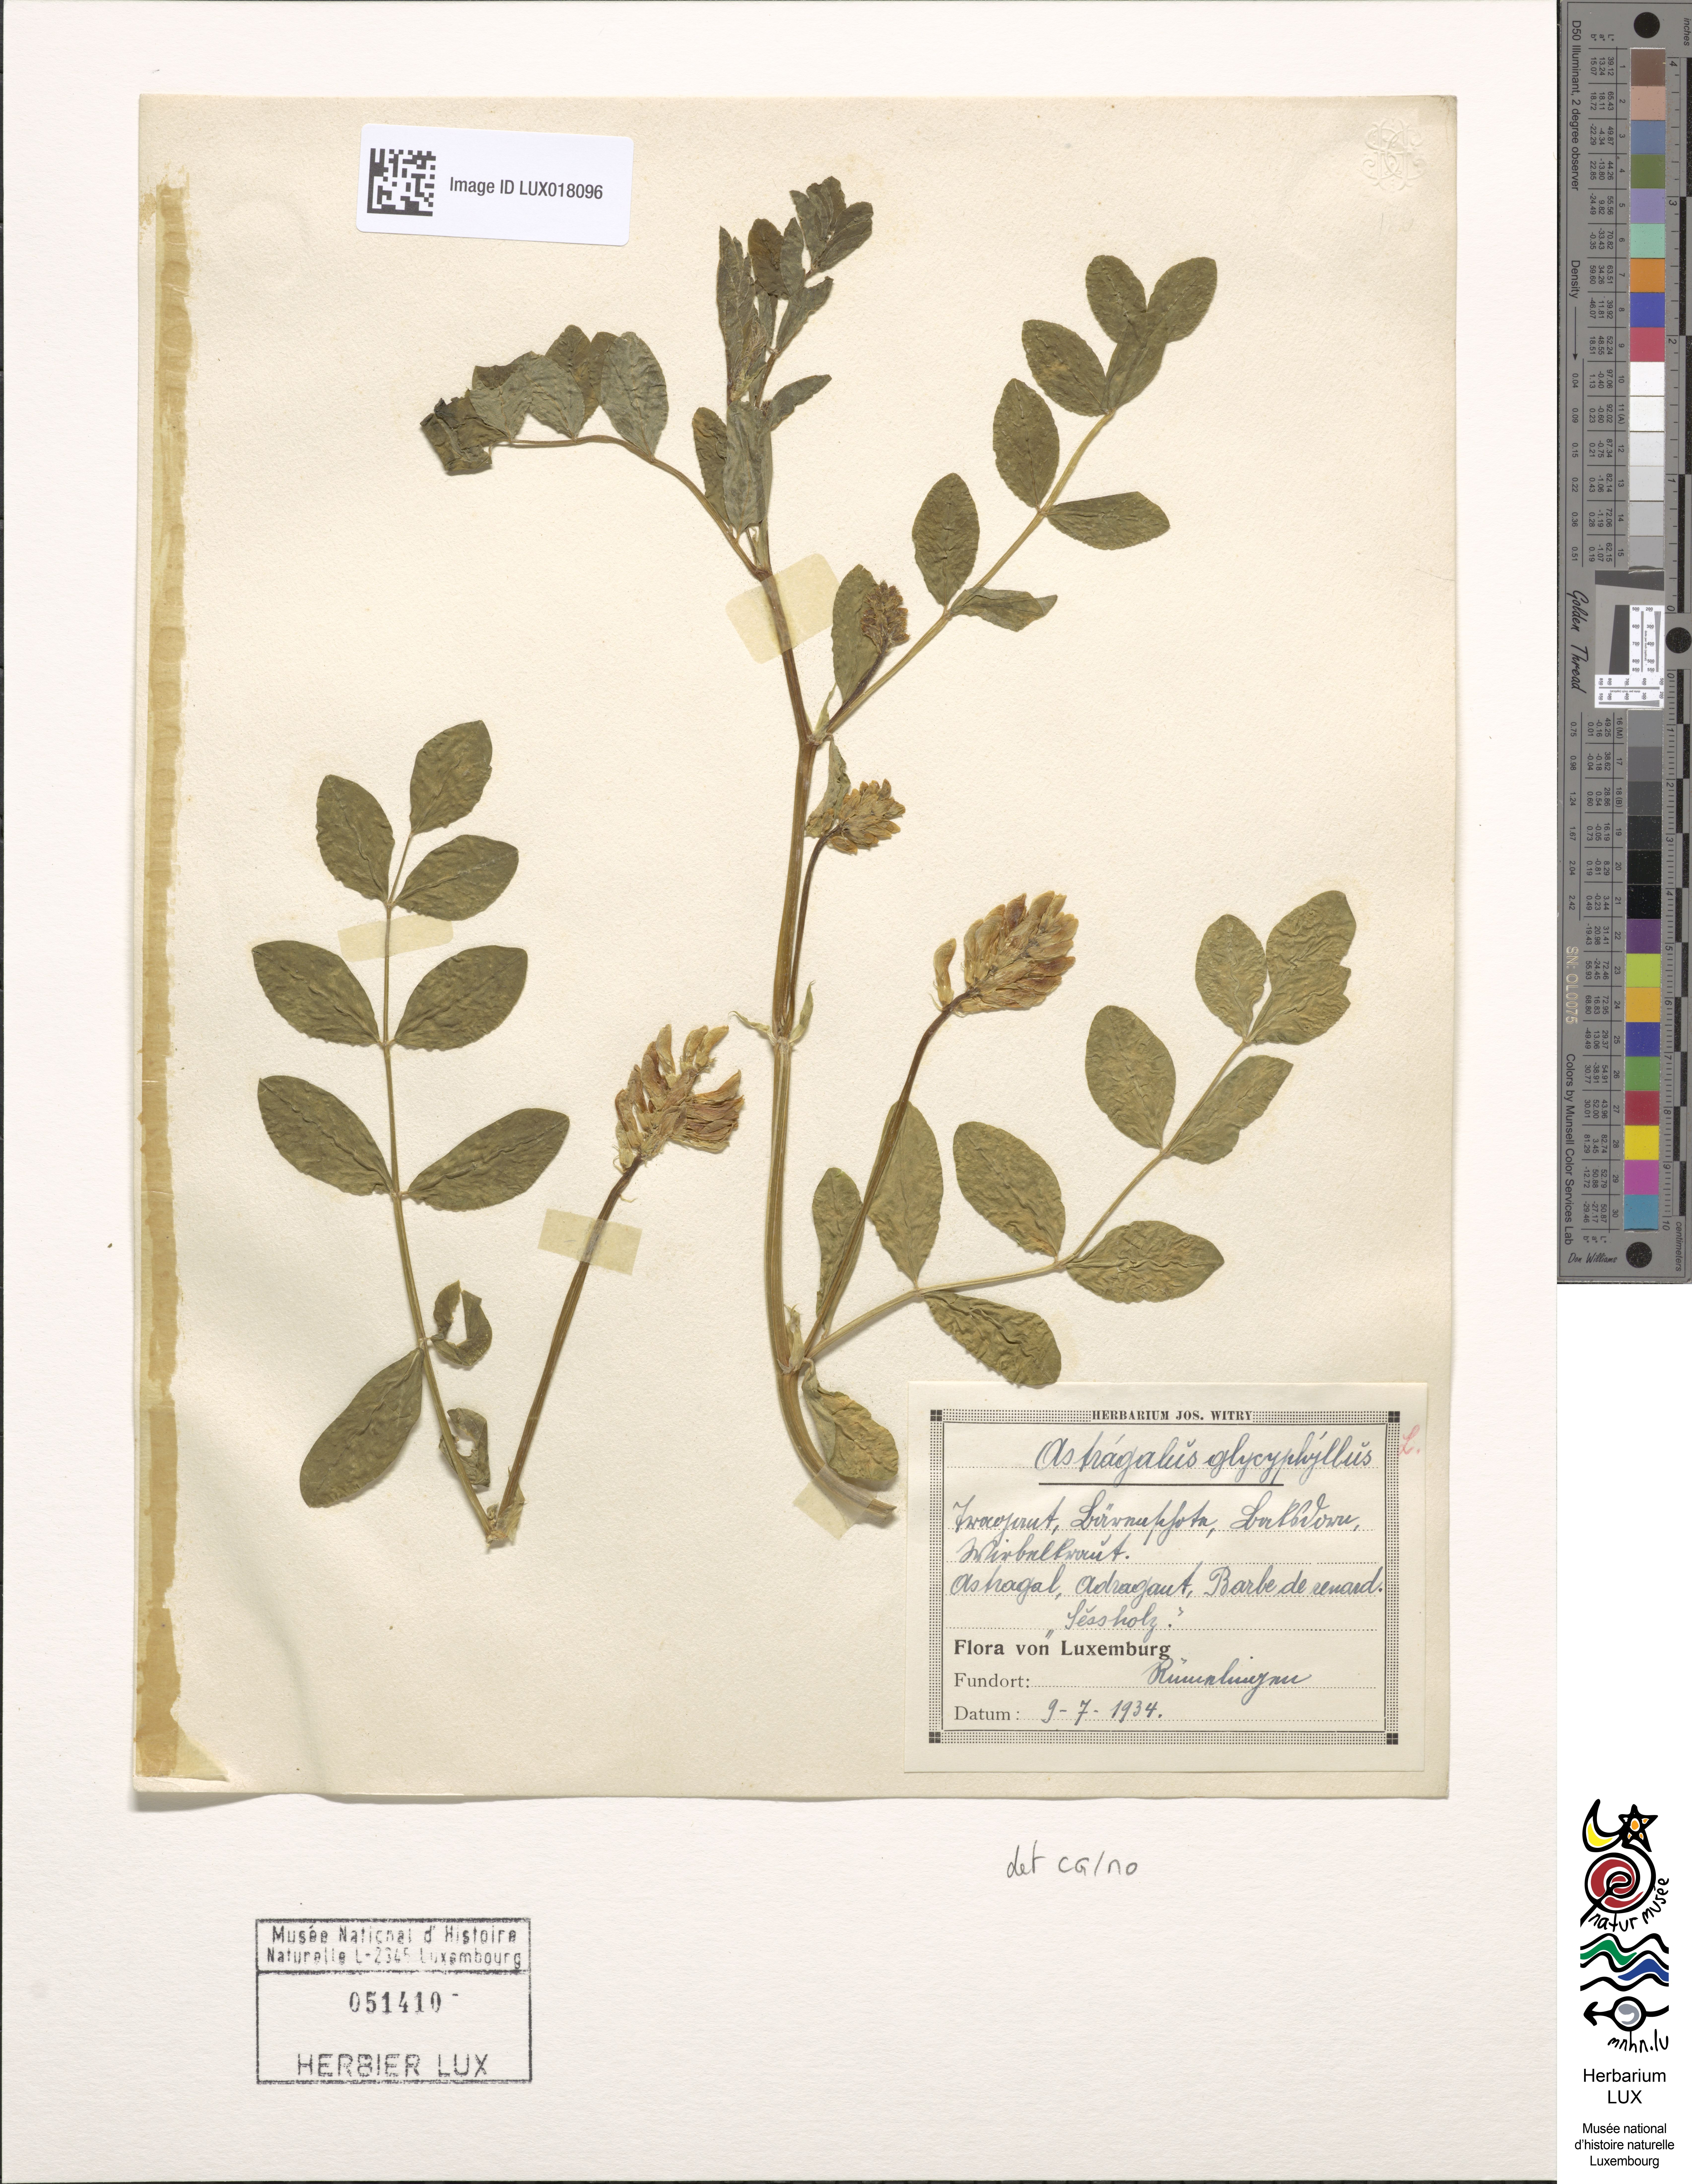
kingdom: Plantae
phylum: Tracheophyta
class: Magnoliopsida
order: Fabales
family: Fabaceae
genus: Astragalus
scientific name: Astragalus glycyphyllos
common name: Wild liquorice
